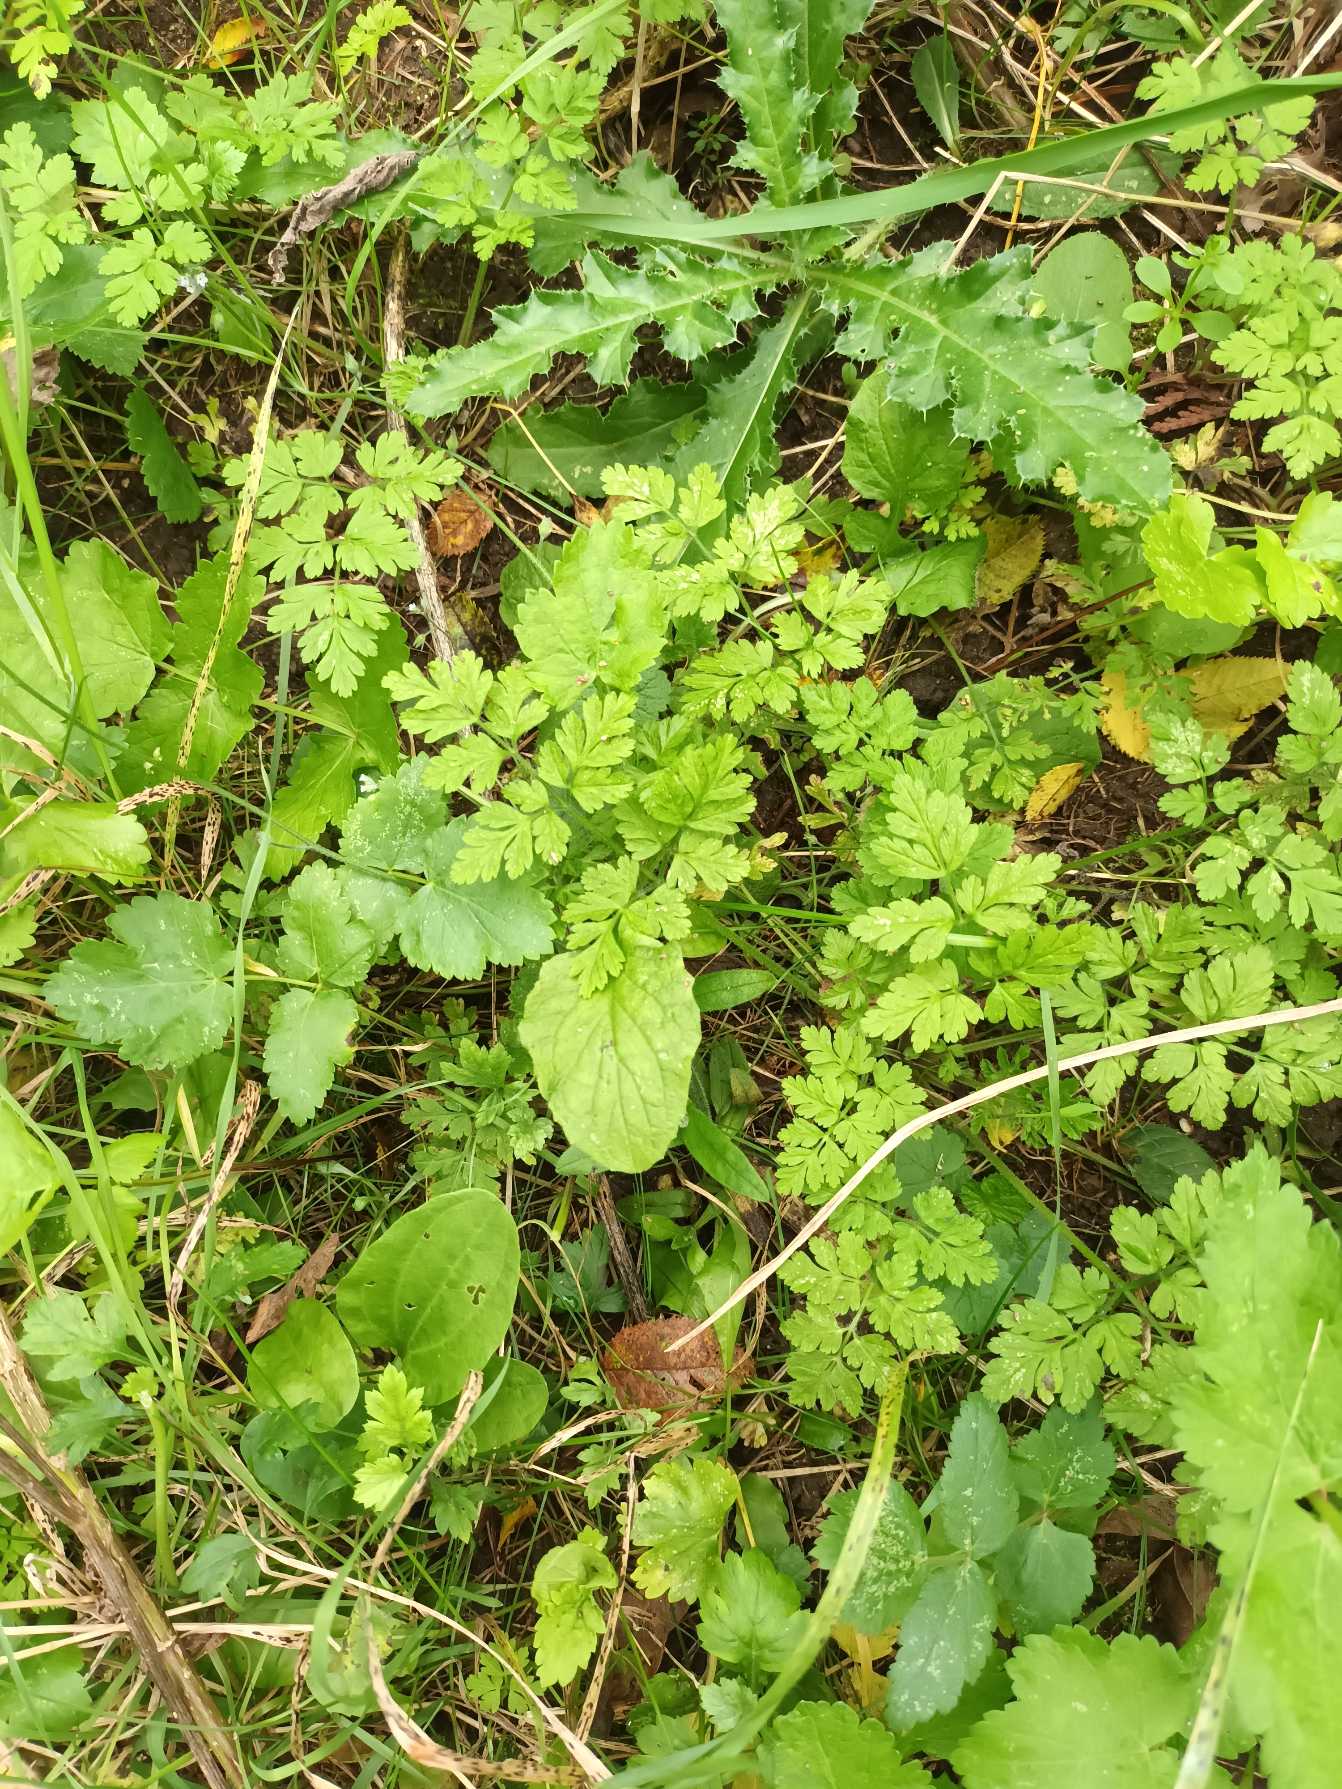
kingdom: Plantae
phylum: Tracheophyta
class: Magnoliopsida
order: Apiales
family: Apiaceae
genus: Chaerophyllum
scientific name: Chaerophyllum temulum
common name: Almindelig hulsvøb
